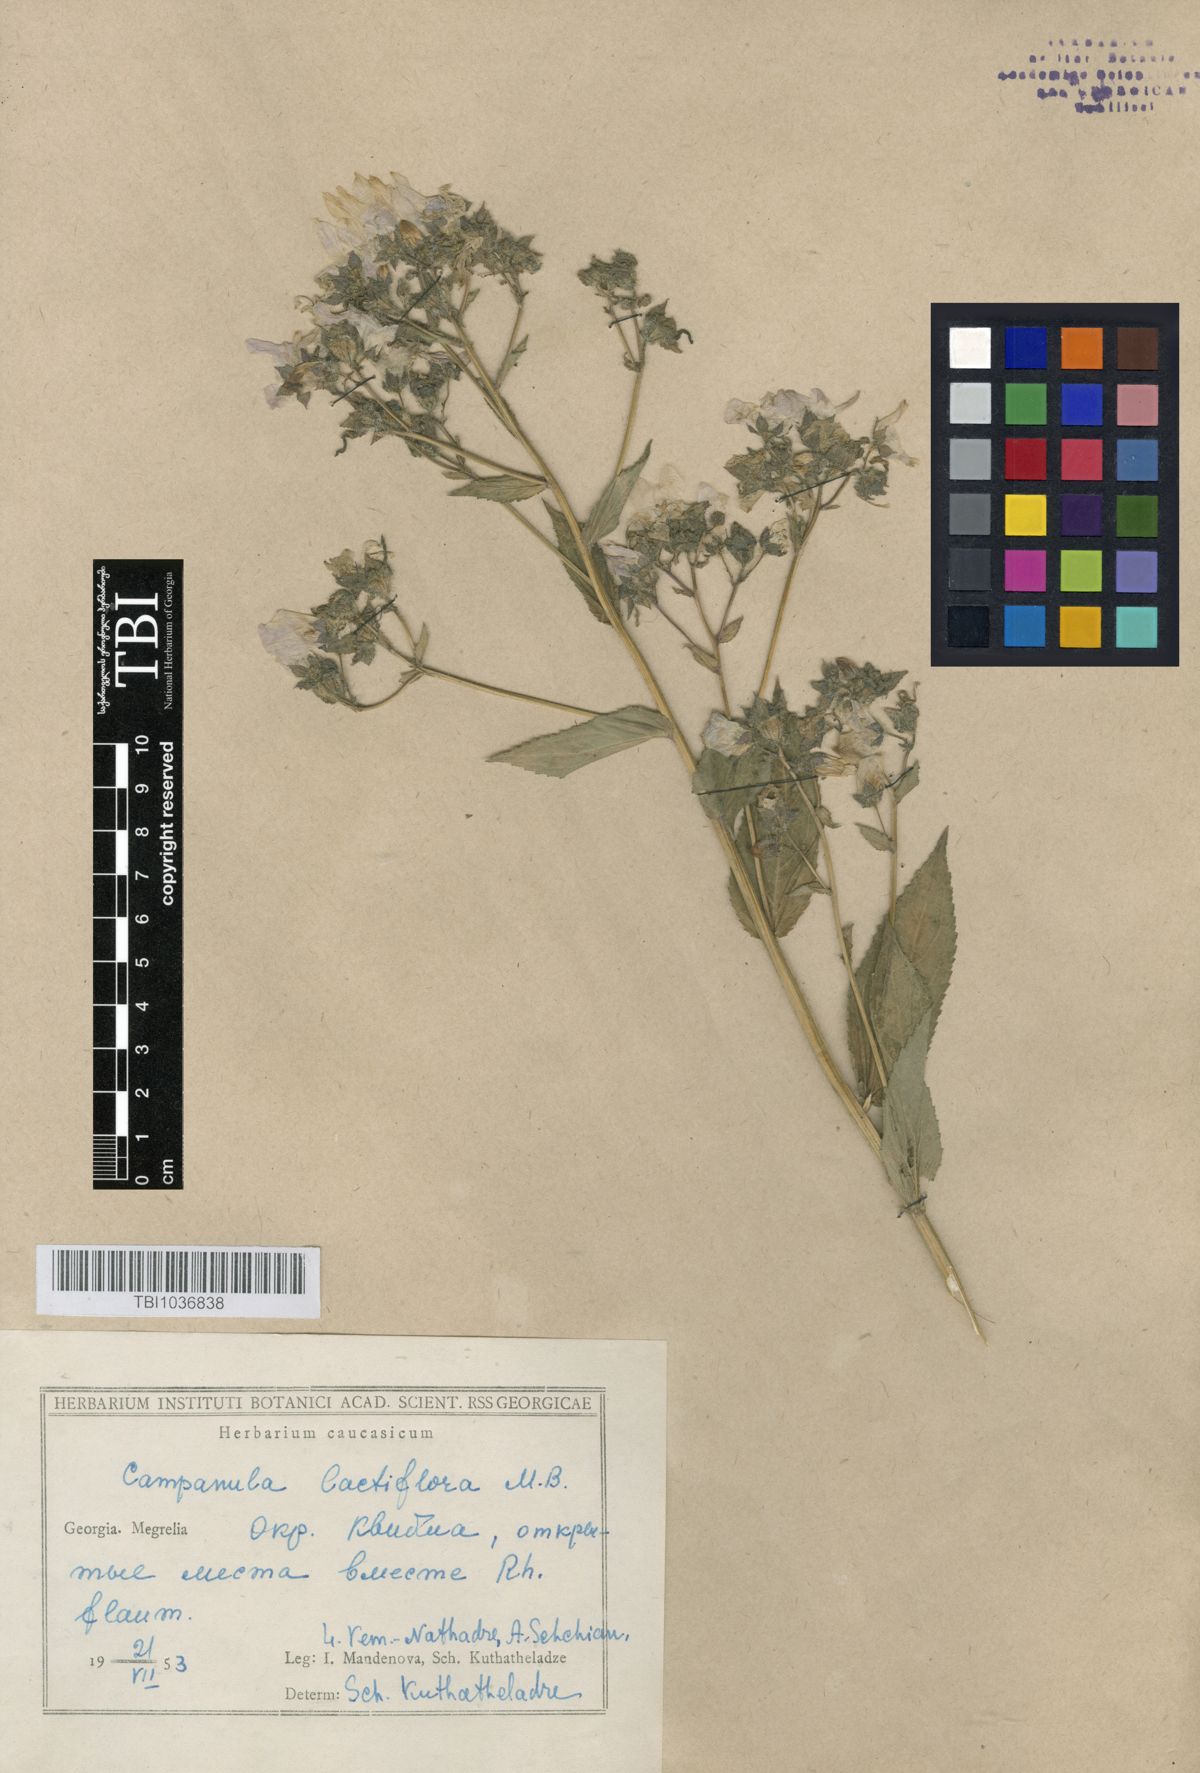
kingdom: Plantae
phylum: Tracheophyta
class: Magnoliopsida
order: Asterales
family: Campanulaceae
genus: Campanula
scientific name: Campanula lactiflora
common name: Milky bellflower
